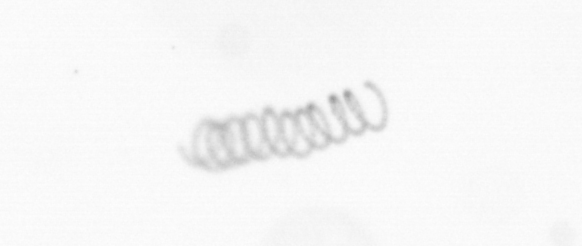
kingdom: Chromista
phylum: Ochrophyta
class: Bacillariophyceae
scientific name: Bacillariophyceae
